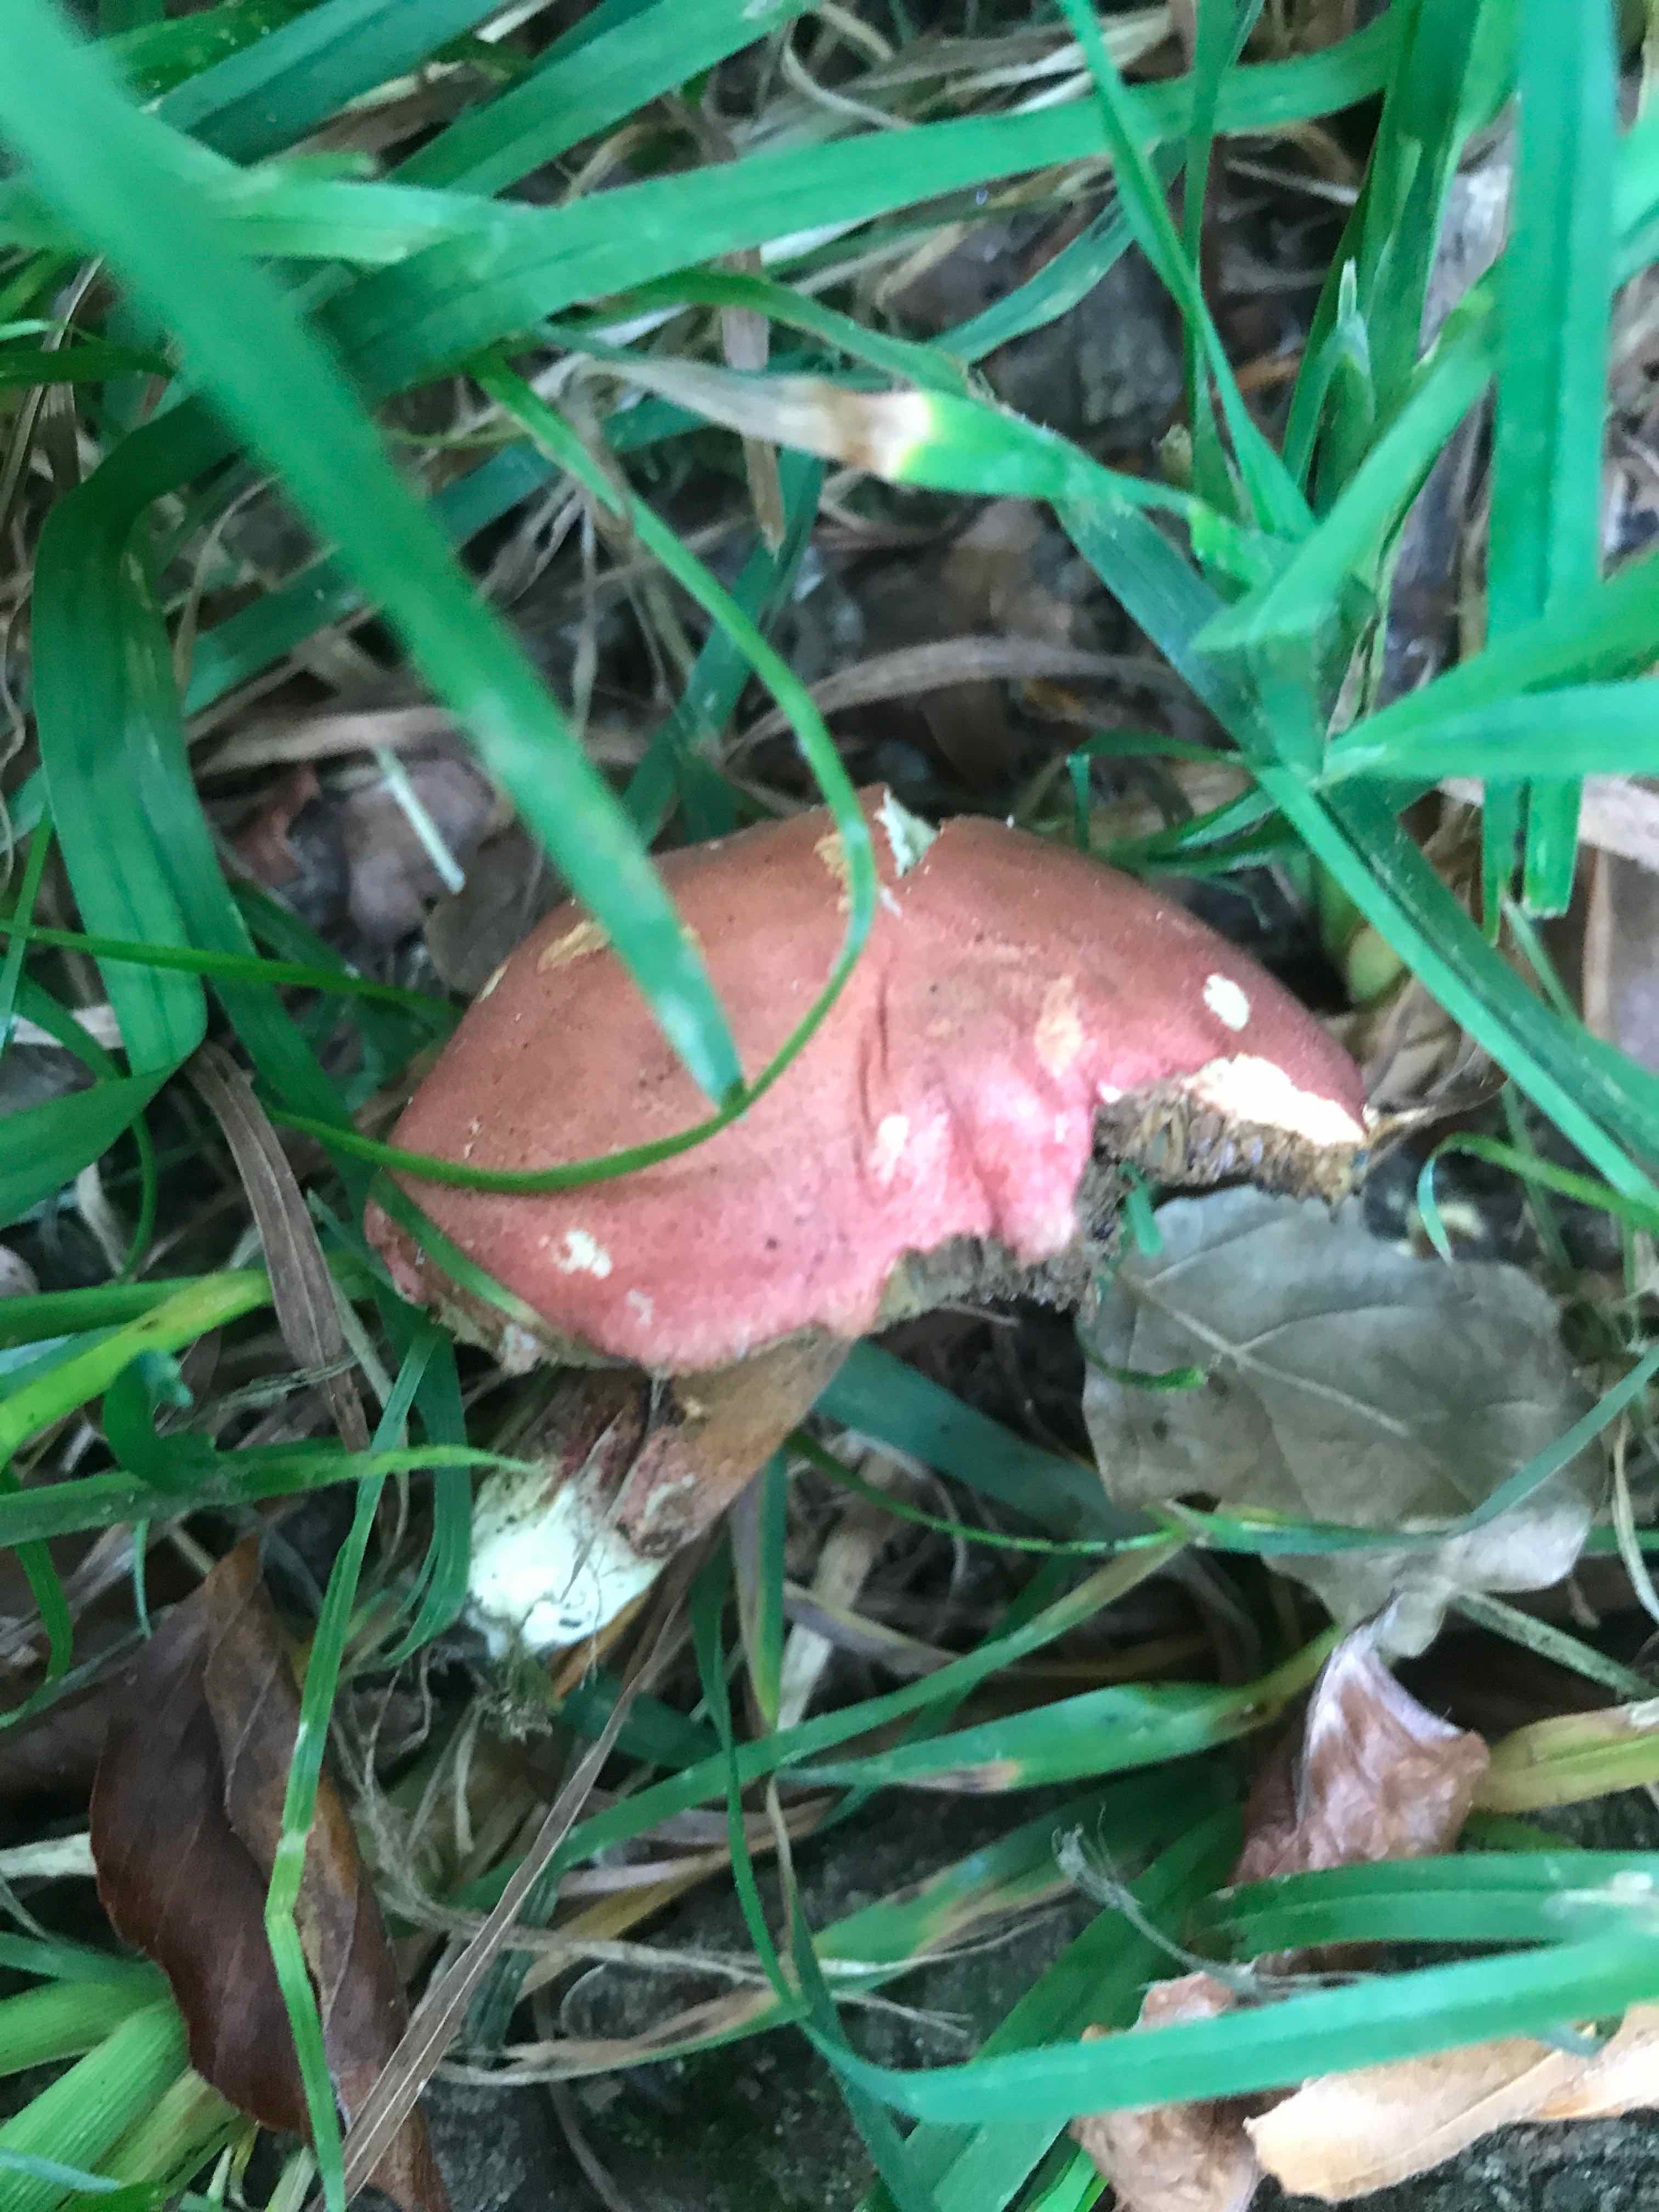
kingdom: Fungi
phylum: Basidiomycota
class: Agaricomycetes
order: Boletales
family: Boletaceae
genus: Hortiboletus
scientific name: Hortiboletus rubellus
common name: blodrød rørhat
